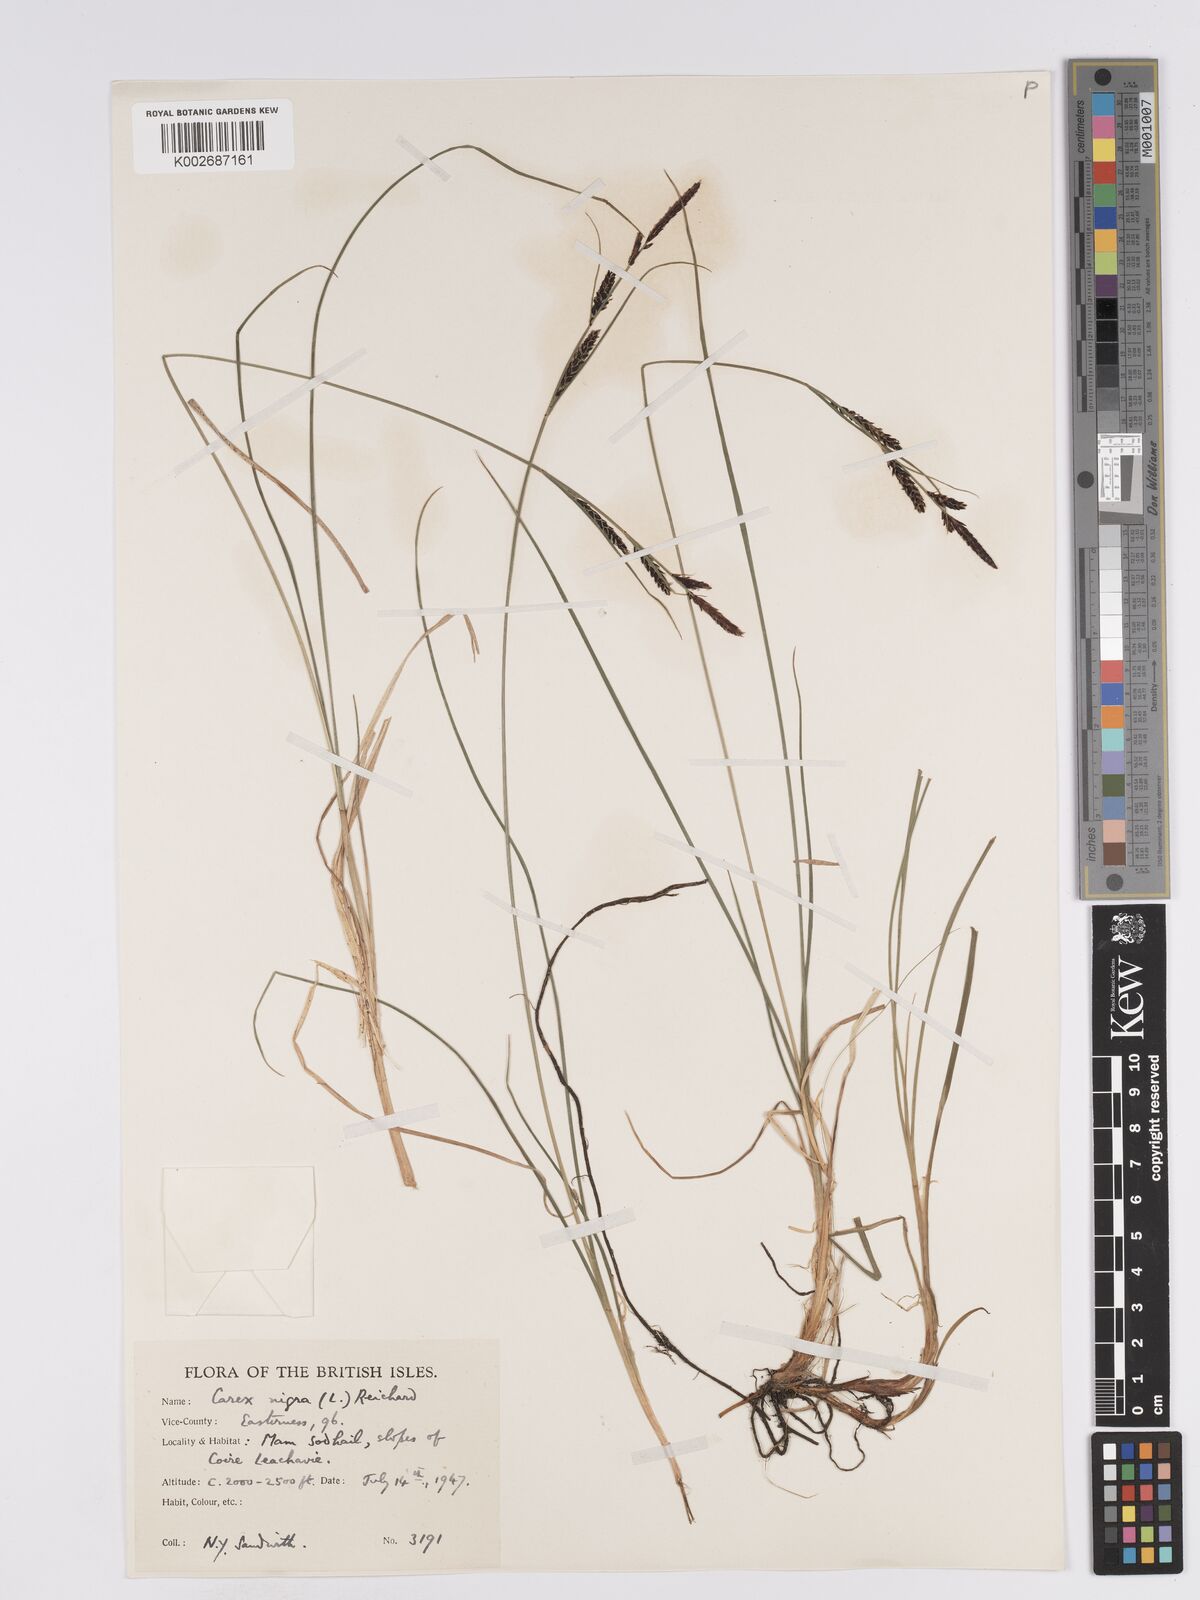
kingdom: Plantae
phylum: Tracheophyta
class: Liliopsida
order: Poales
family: Cyperaceae
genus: Carex
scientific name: Carex nigra
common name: Common sedge
